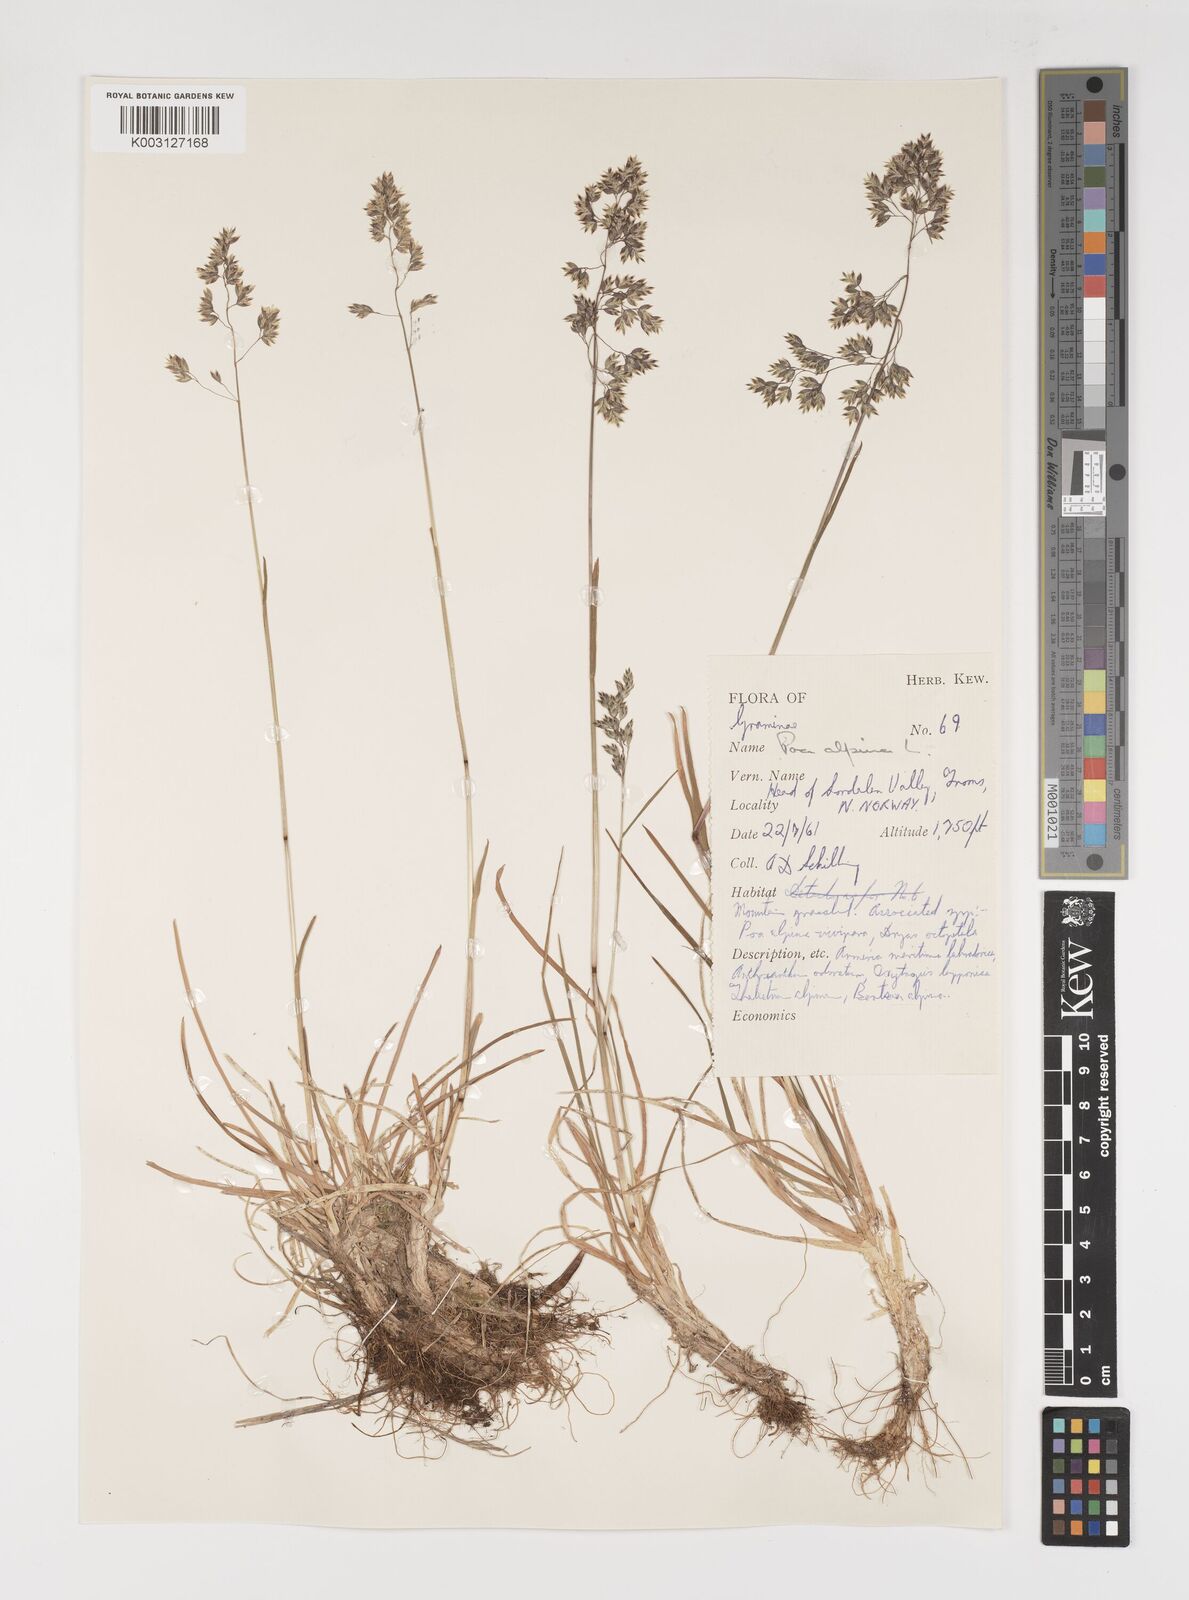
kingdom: Plantae
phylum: Tracheophyta
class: Liliopsida
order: Poales
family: Poaceae
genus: Poa
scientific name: Poa alpina
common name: Alpine bluegrass
